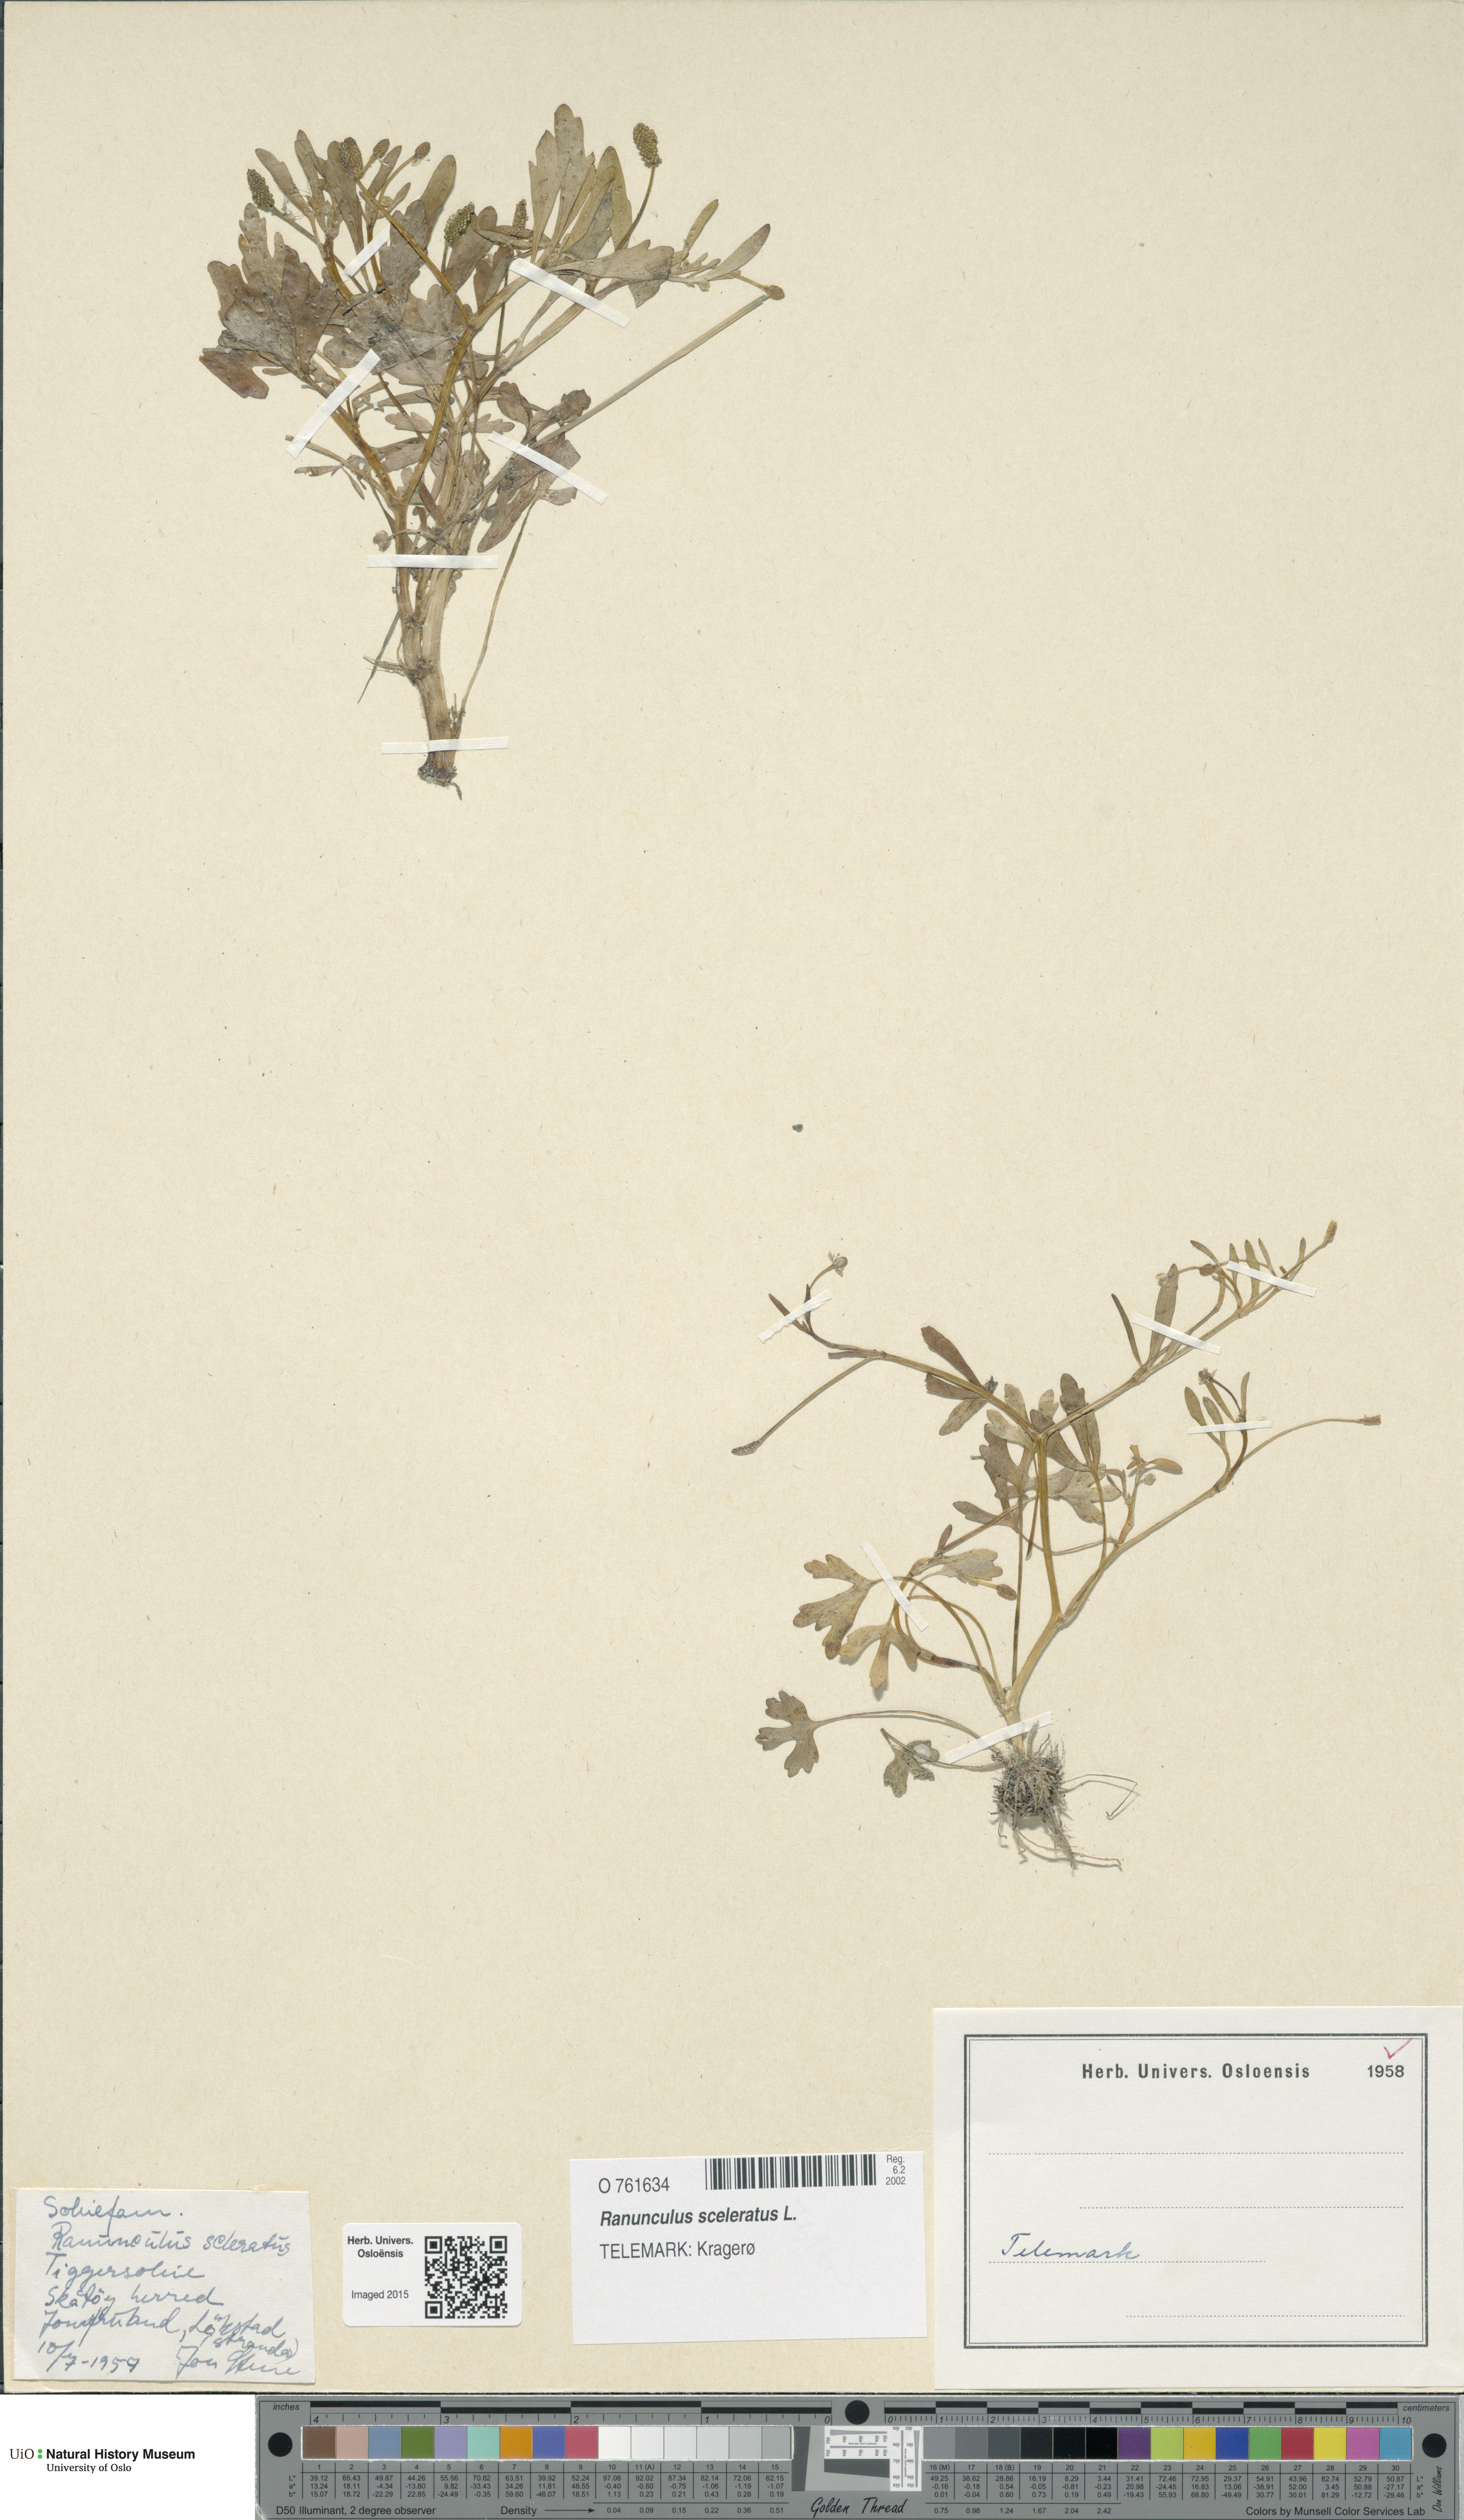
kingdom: Plantae
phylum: Tracheophyta
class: Magnoliopsida
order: Ranunculales
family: Ranunculaceae
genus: Ranunculus
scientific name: Ranunculus sceleratus
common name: Celery-leaved buttercup
